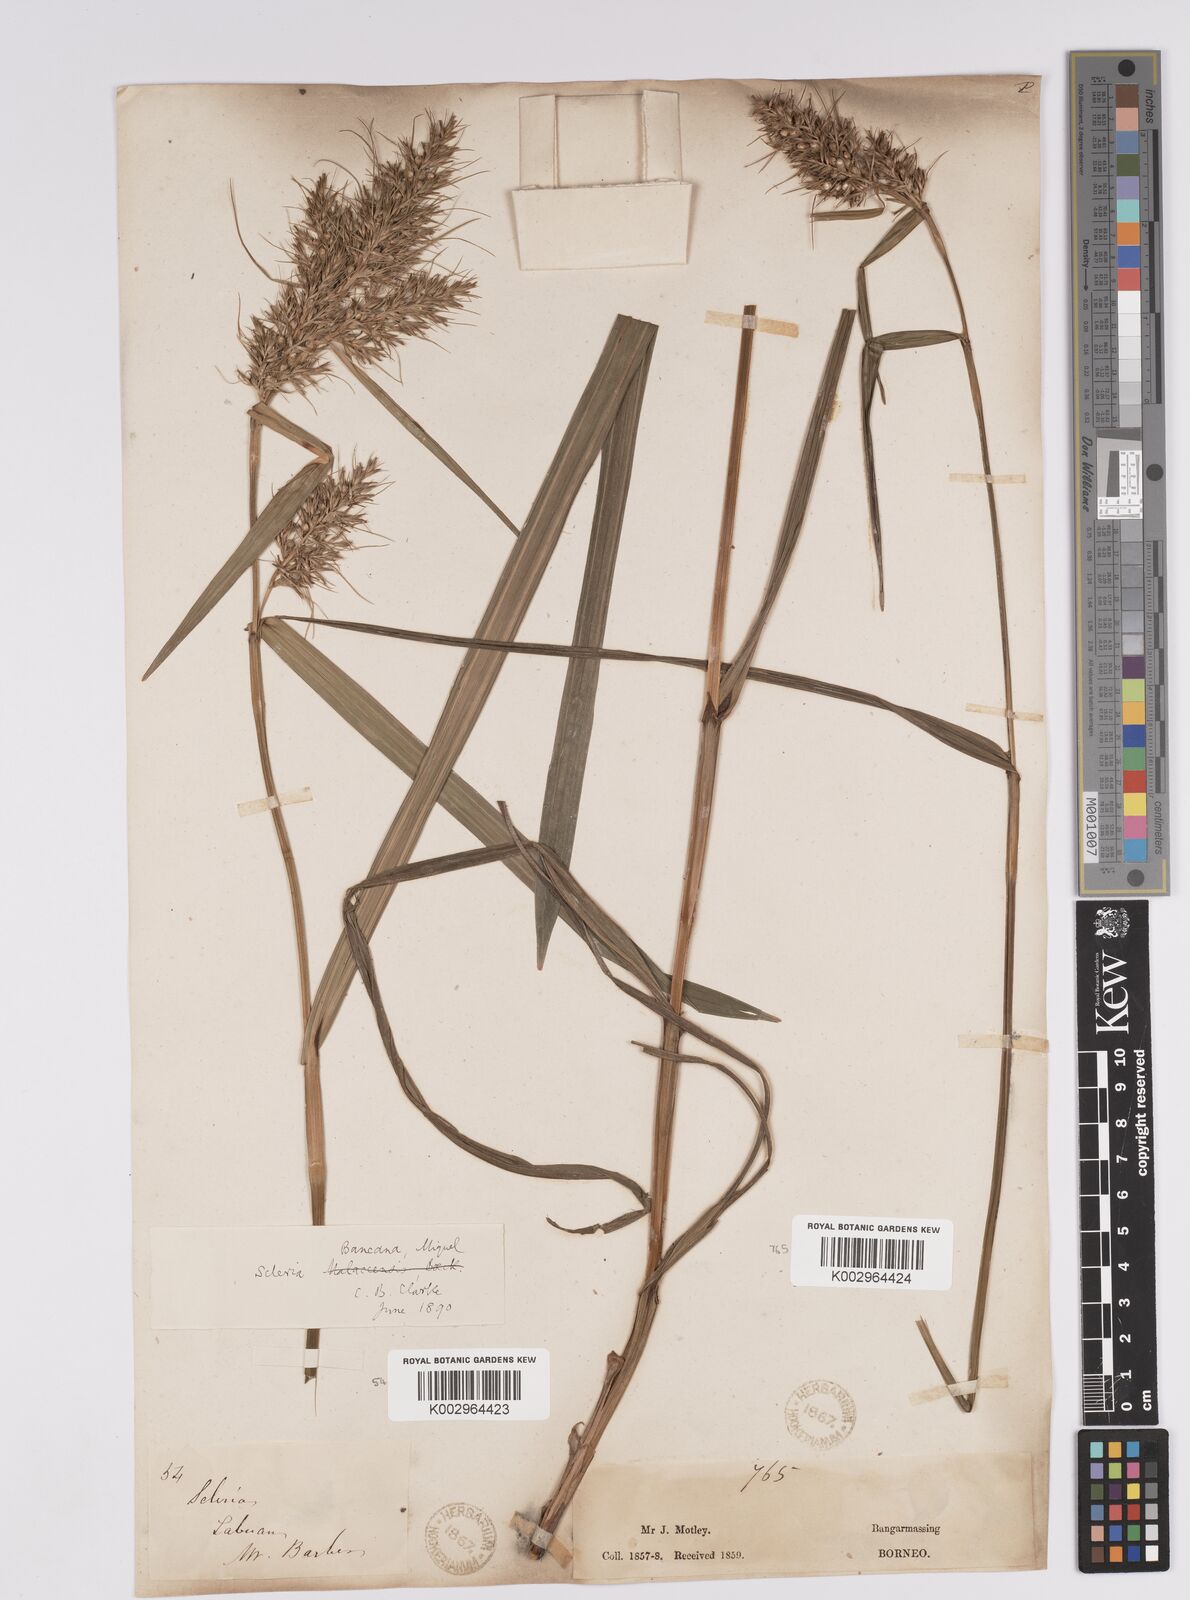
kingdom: Plantae
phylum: Tracheophyta
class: Liliopsida
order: Poales
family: Cyperaceae
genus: Scleria
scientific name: Scleria ciliaris
